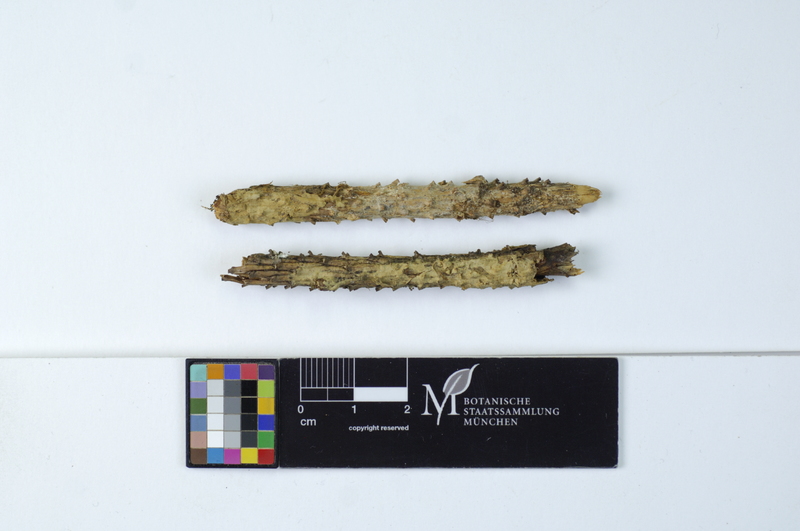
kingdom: Plantae
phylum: Tracheophyta
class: Pinopsida
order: Pinales
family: Pinaceae
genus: Picea
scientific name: Picea
